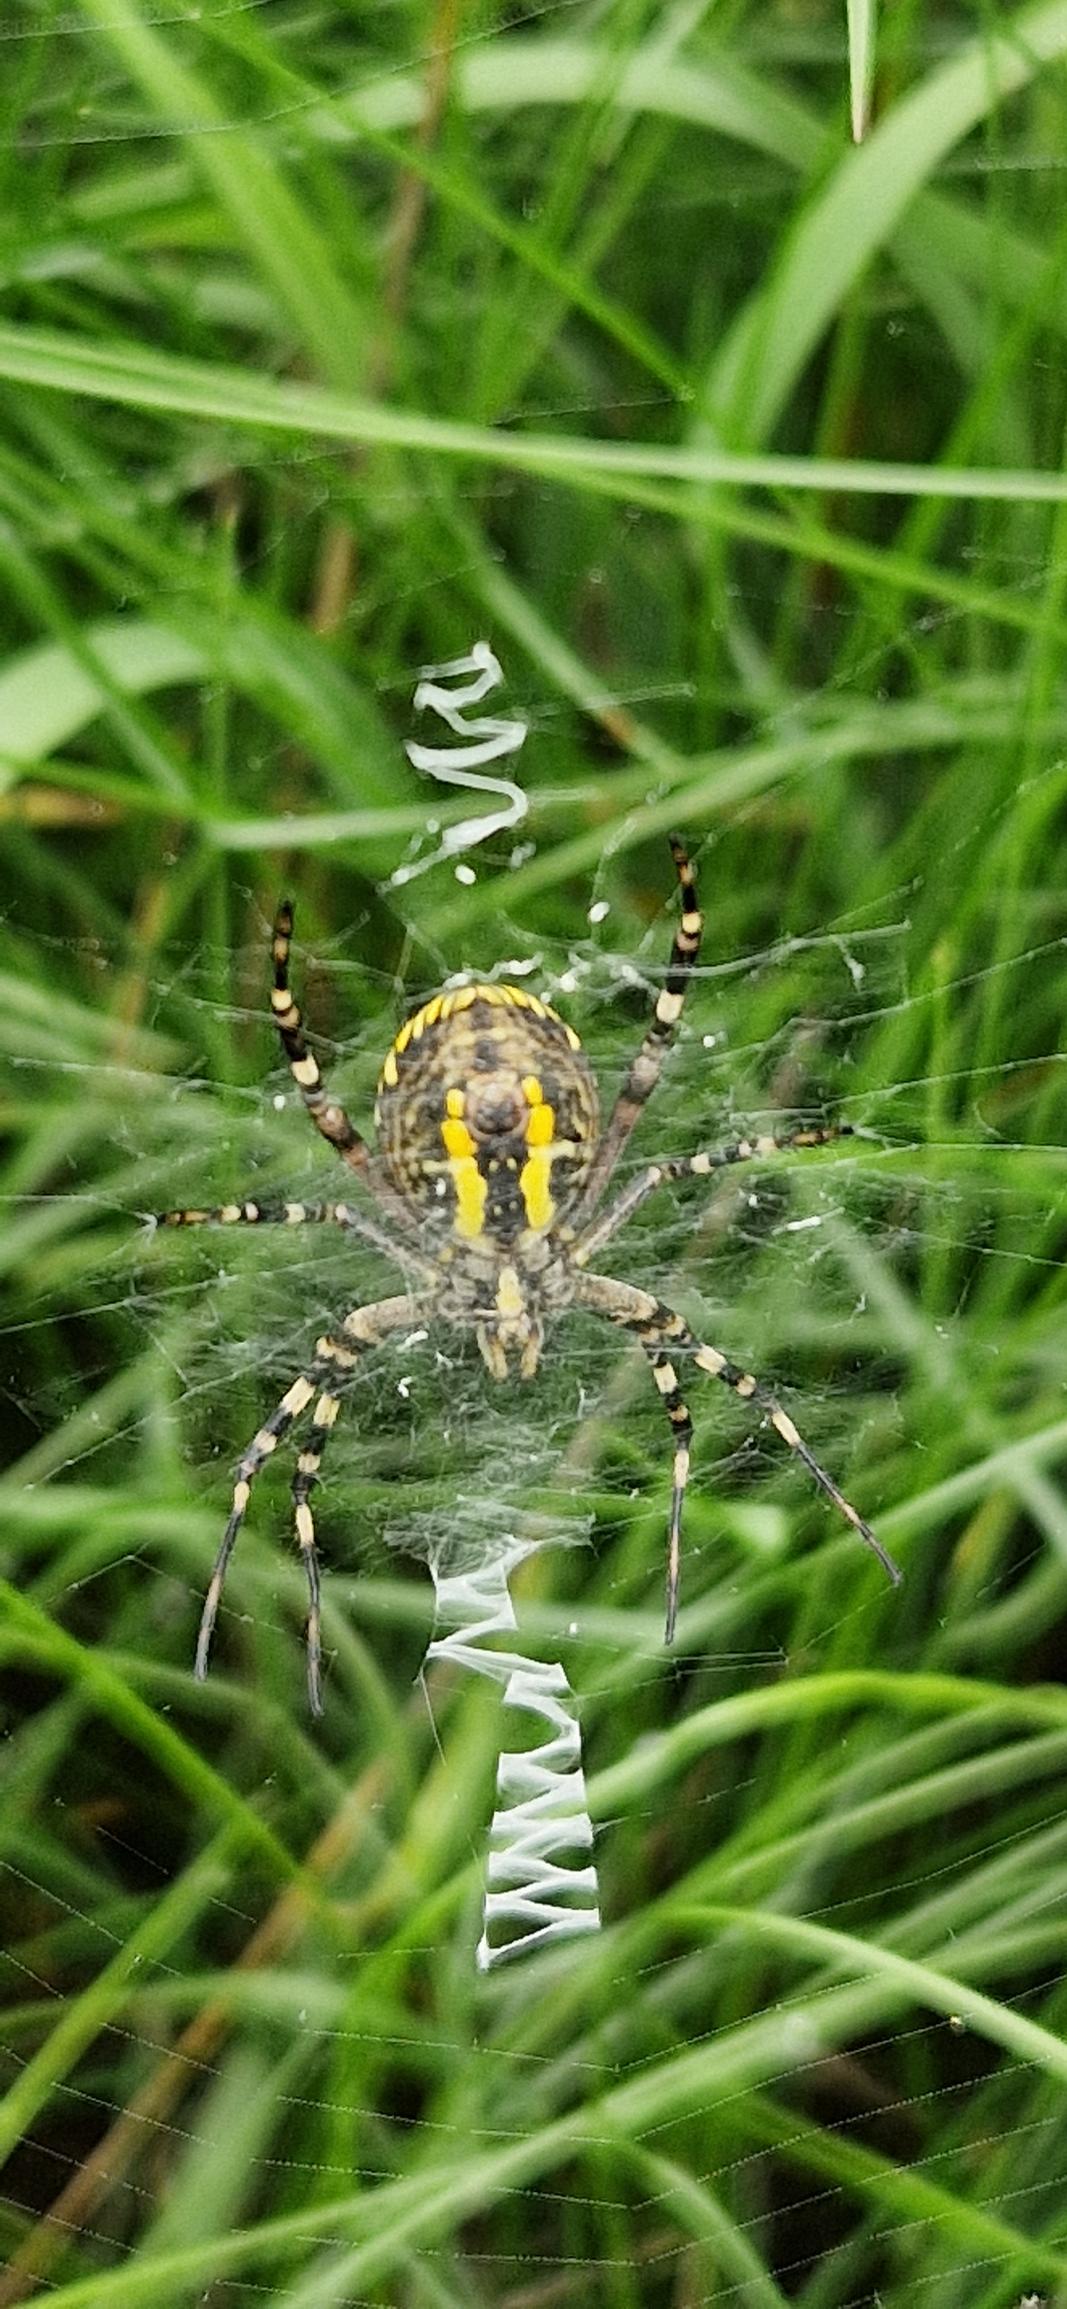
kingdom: Animalia
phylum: Arthropoda
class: Arachnida
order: Araneae
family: Araneidae
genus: Argiope
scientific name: Argiope bruennichi
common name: Hvepseedderkop
